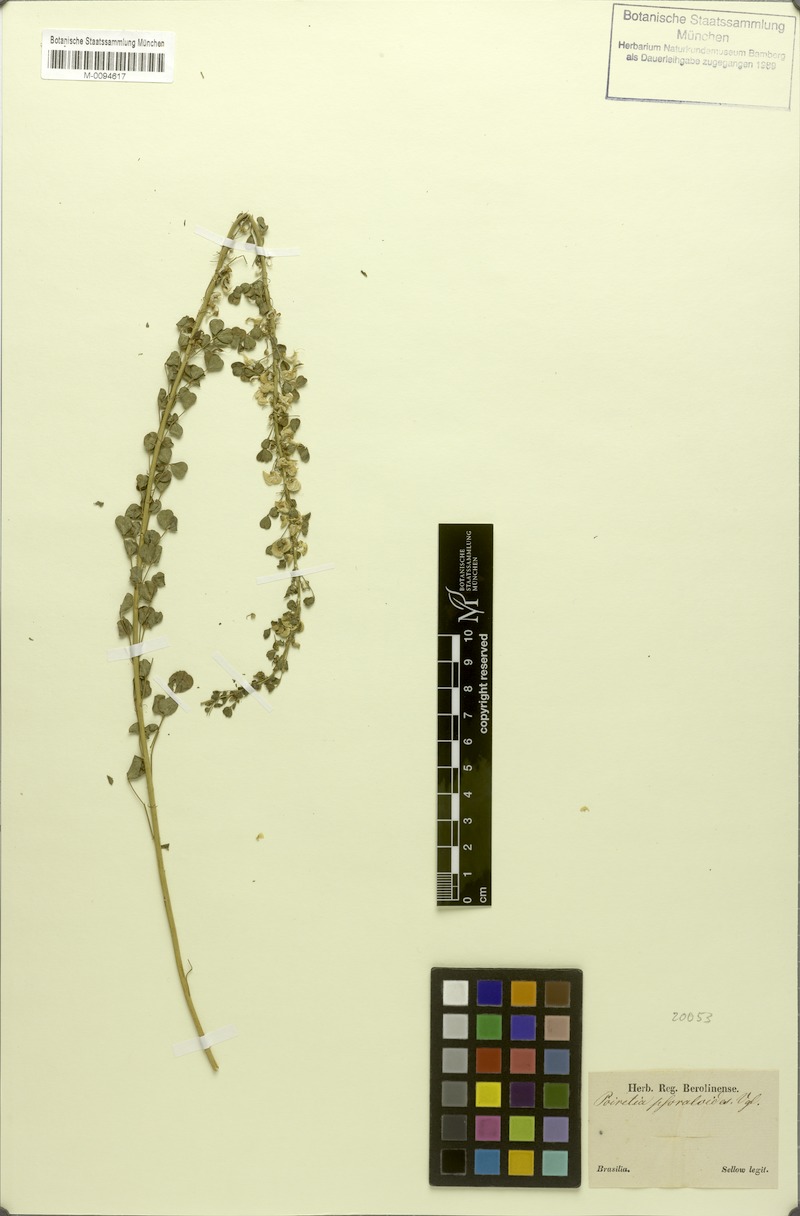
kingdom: Plantae
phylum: Tracheophyta
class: Magnoliopsida
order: Fabales
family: Fabaceae
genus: Poiretia
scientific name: Poiretia tetraphylla
